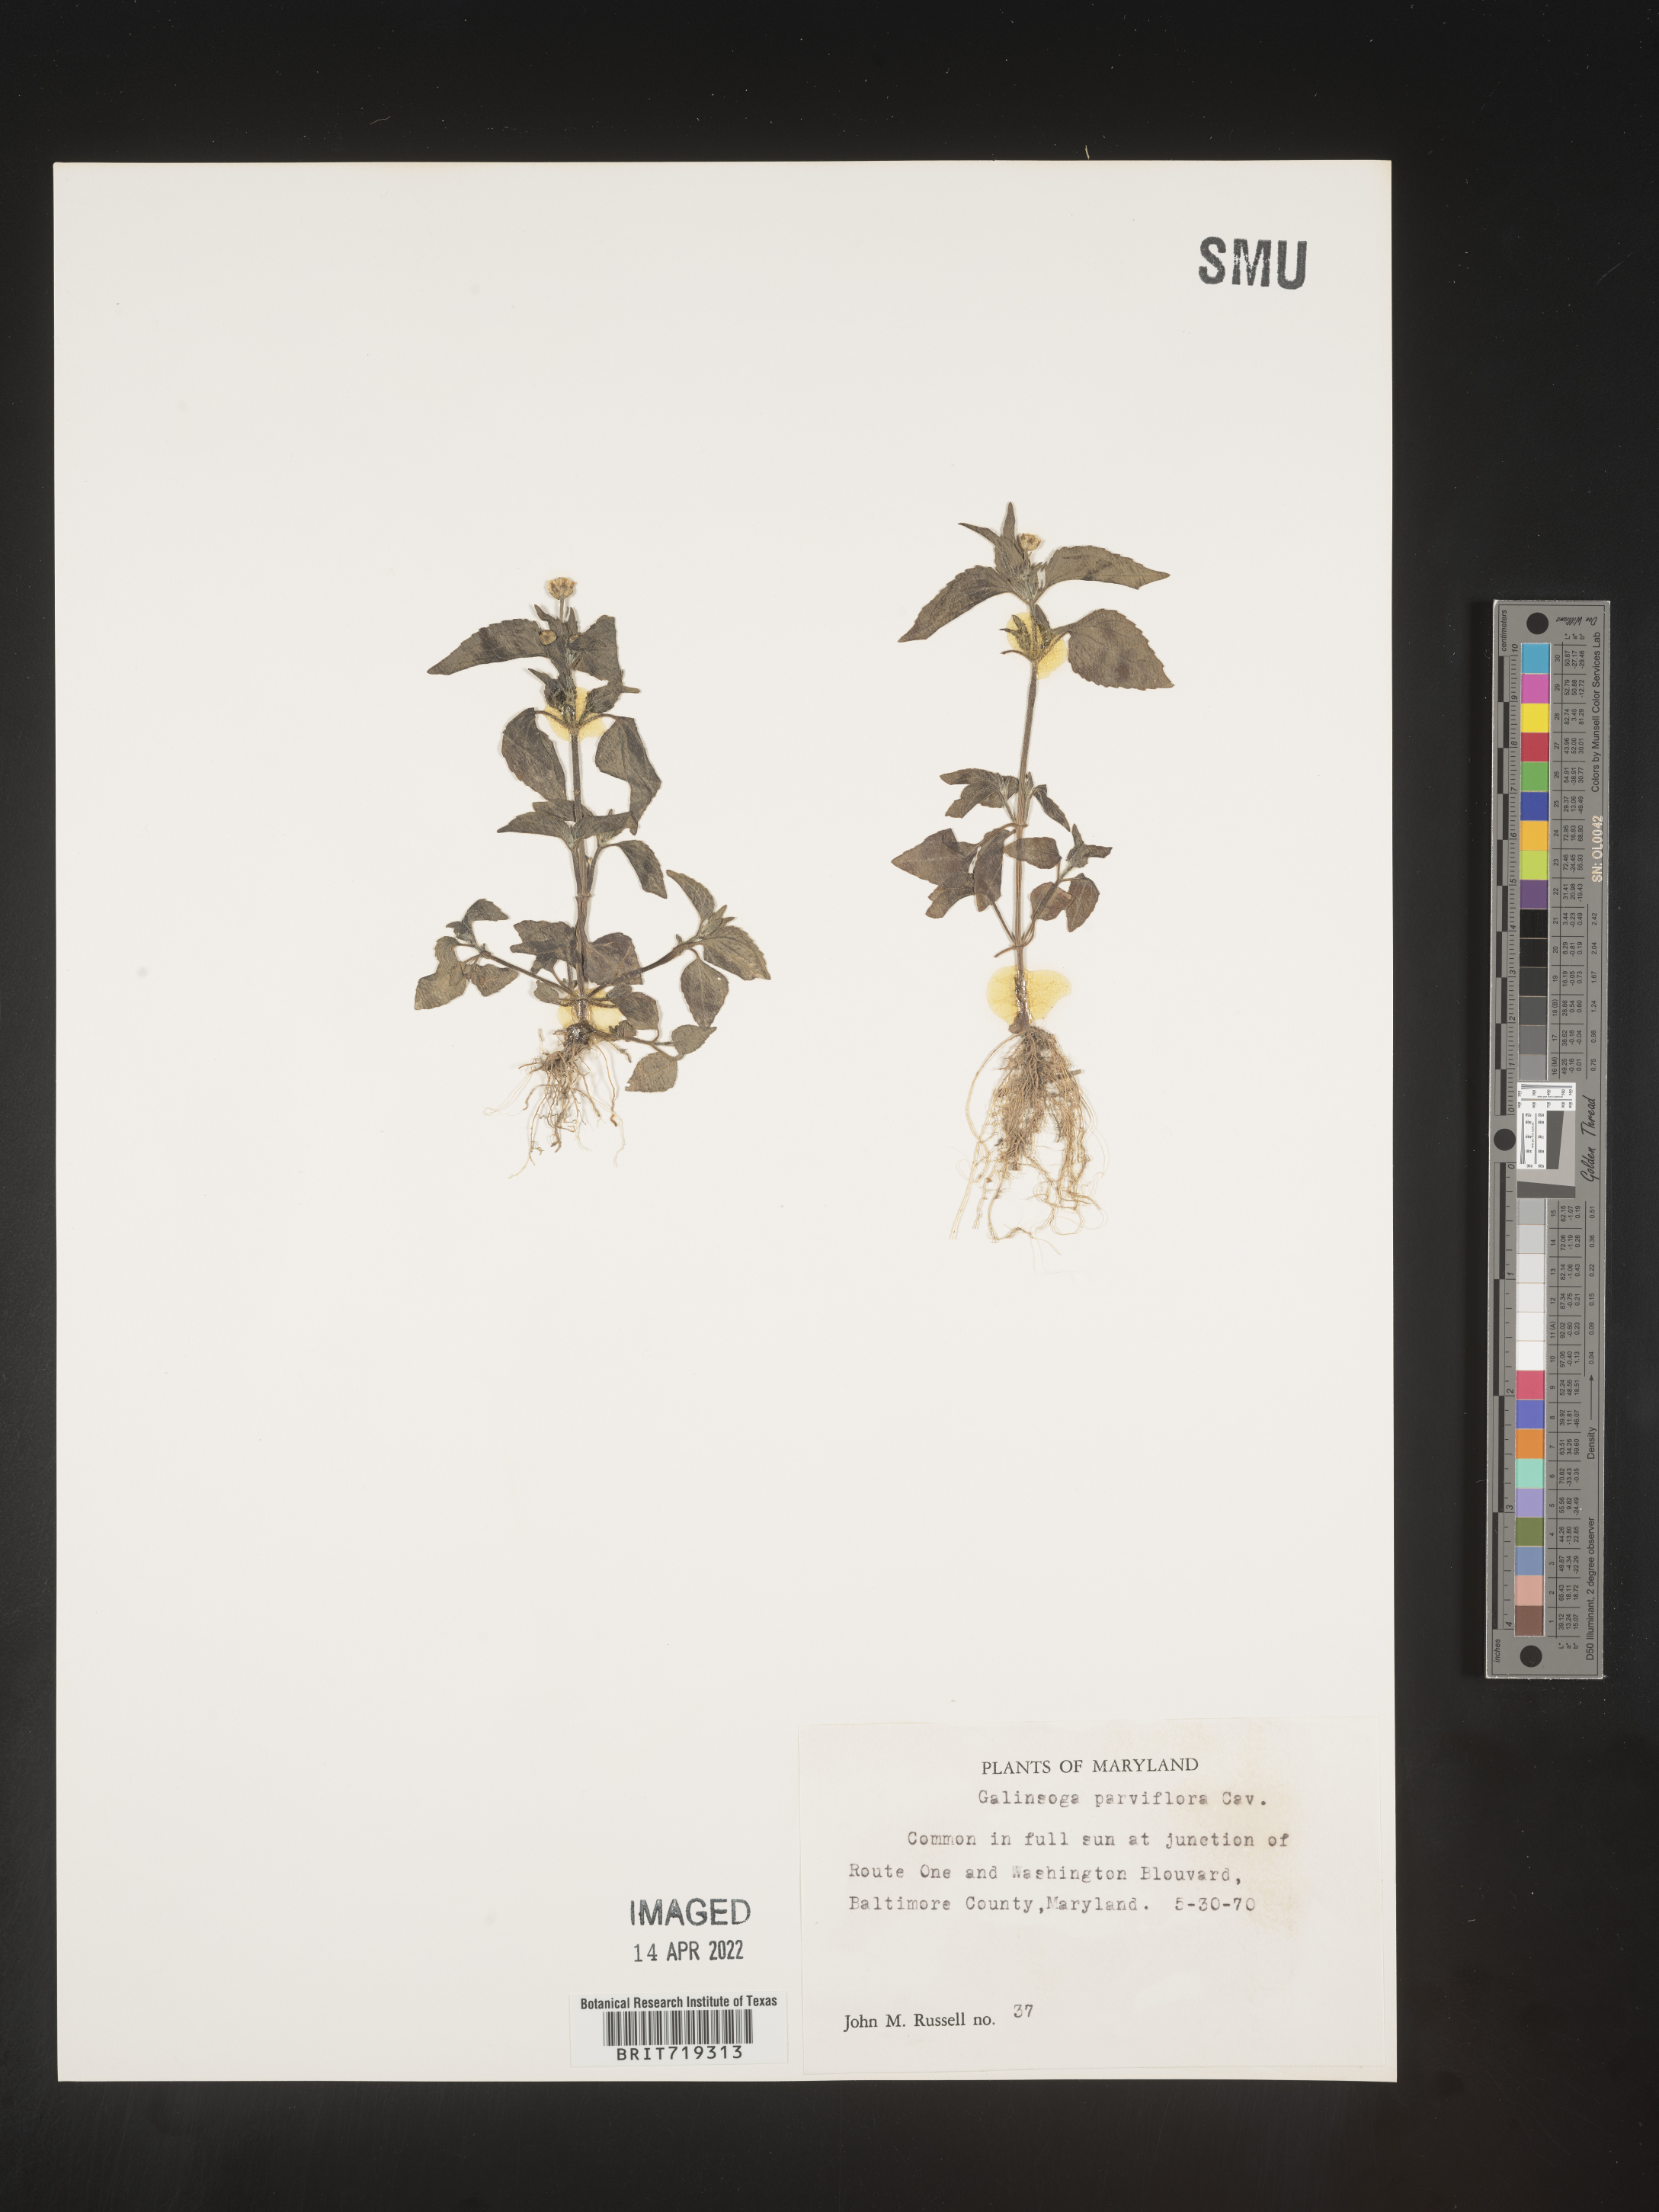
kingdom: Plantae
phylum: Tracheophyta
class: Magnoliopsida
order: Asterales
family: Asteraceae
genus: Galinsoga
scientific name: Galinsoga parviflora
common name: Gallant soldier
